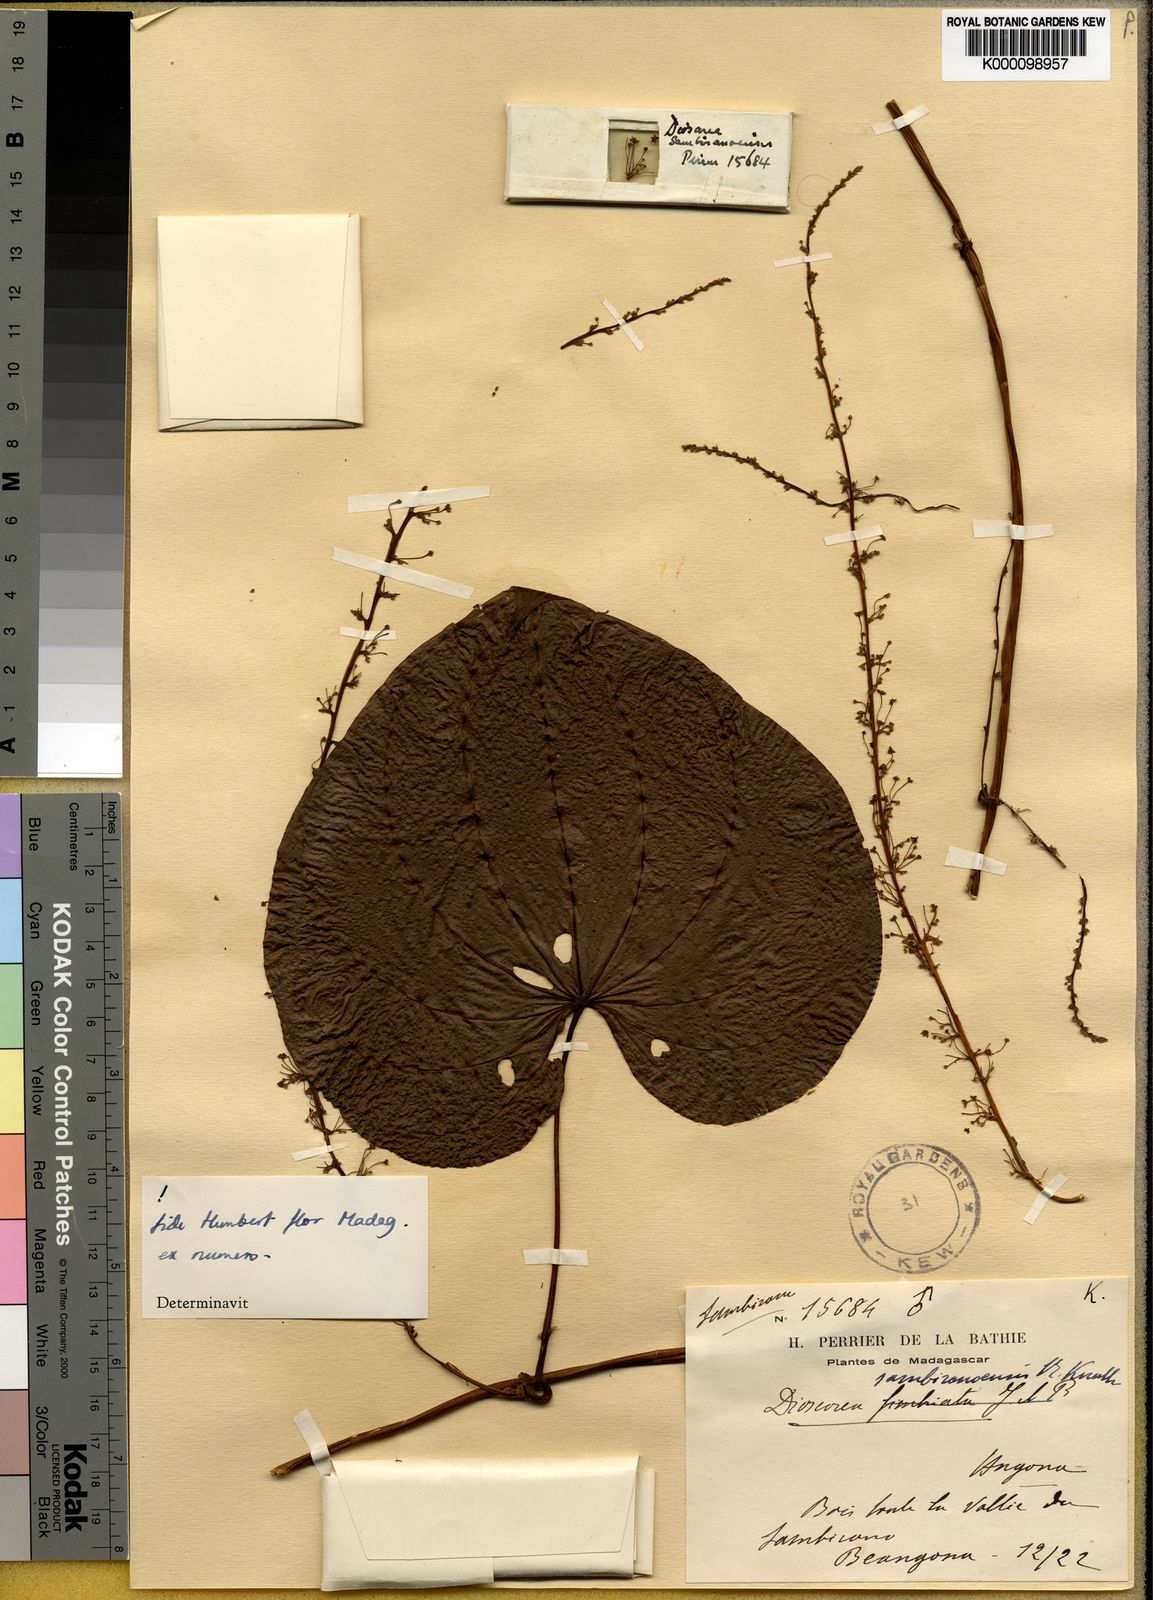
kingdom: Plantae
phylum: Tracheophyta
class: Liliopsida
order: Dioscoreales
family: Dioscoreaceae
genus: Dioscorea
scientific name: Dioscorea sambiranensis
